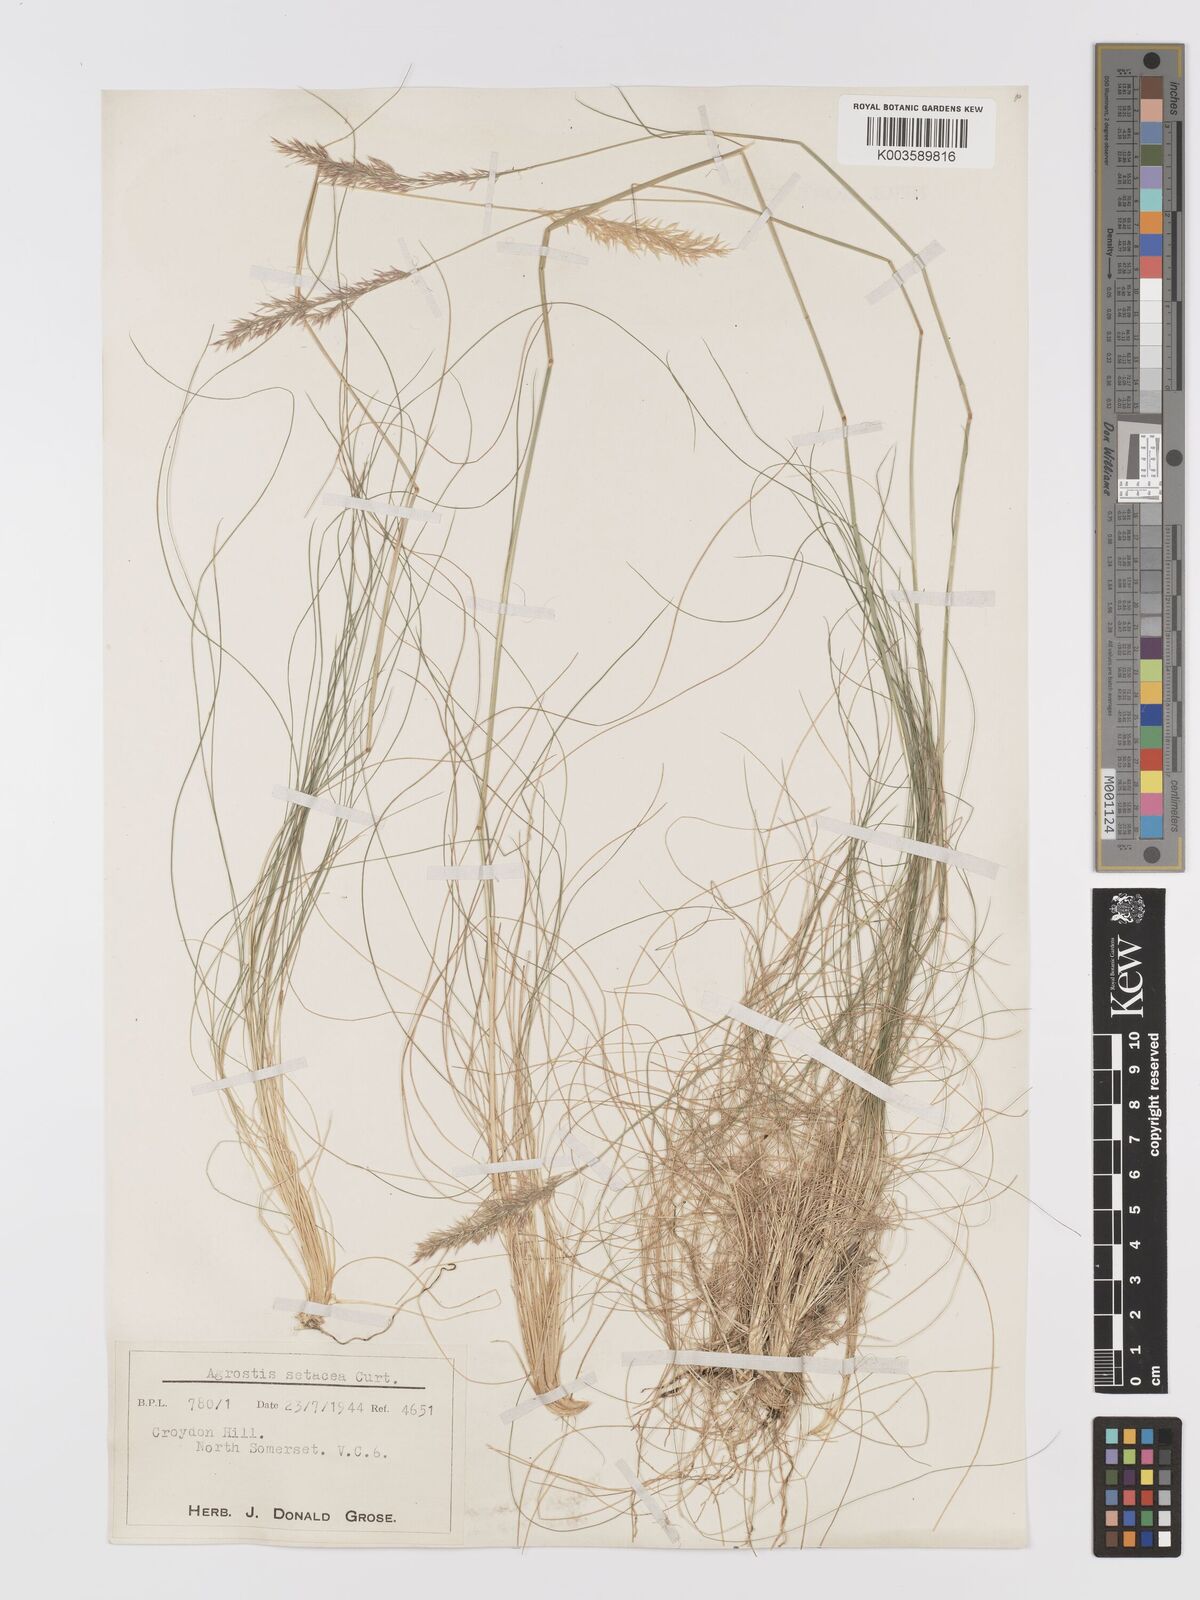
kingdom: Plantae
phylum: Tracheophyta
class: Liliopsida
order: Poales
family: Poaceae
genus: Alpagrostis
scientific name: Alpagrostis setacea
